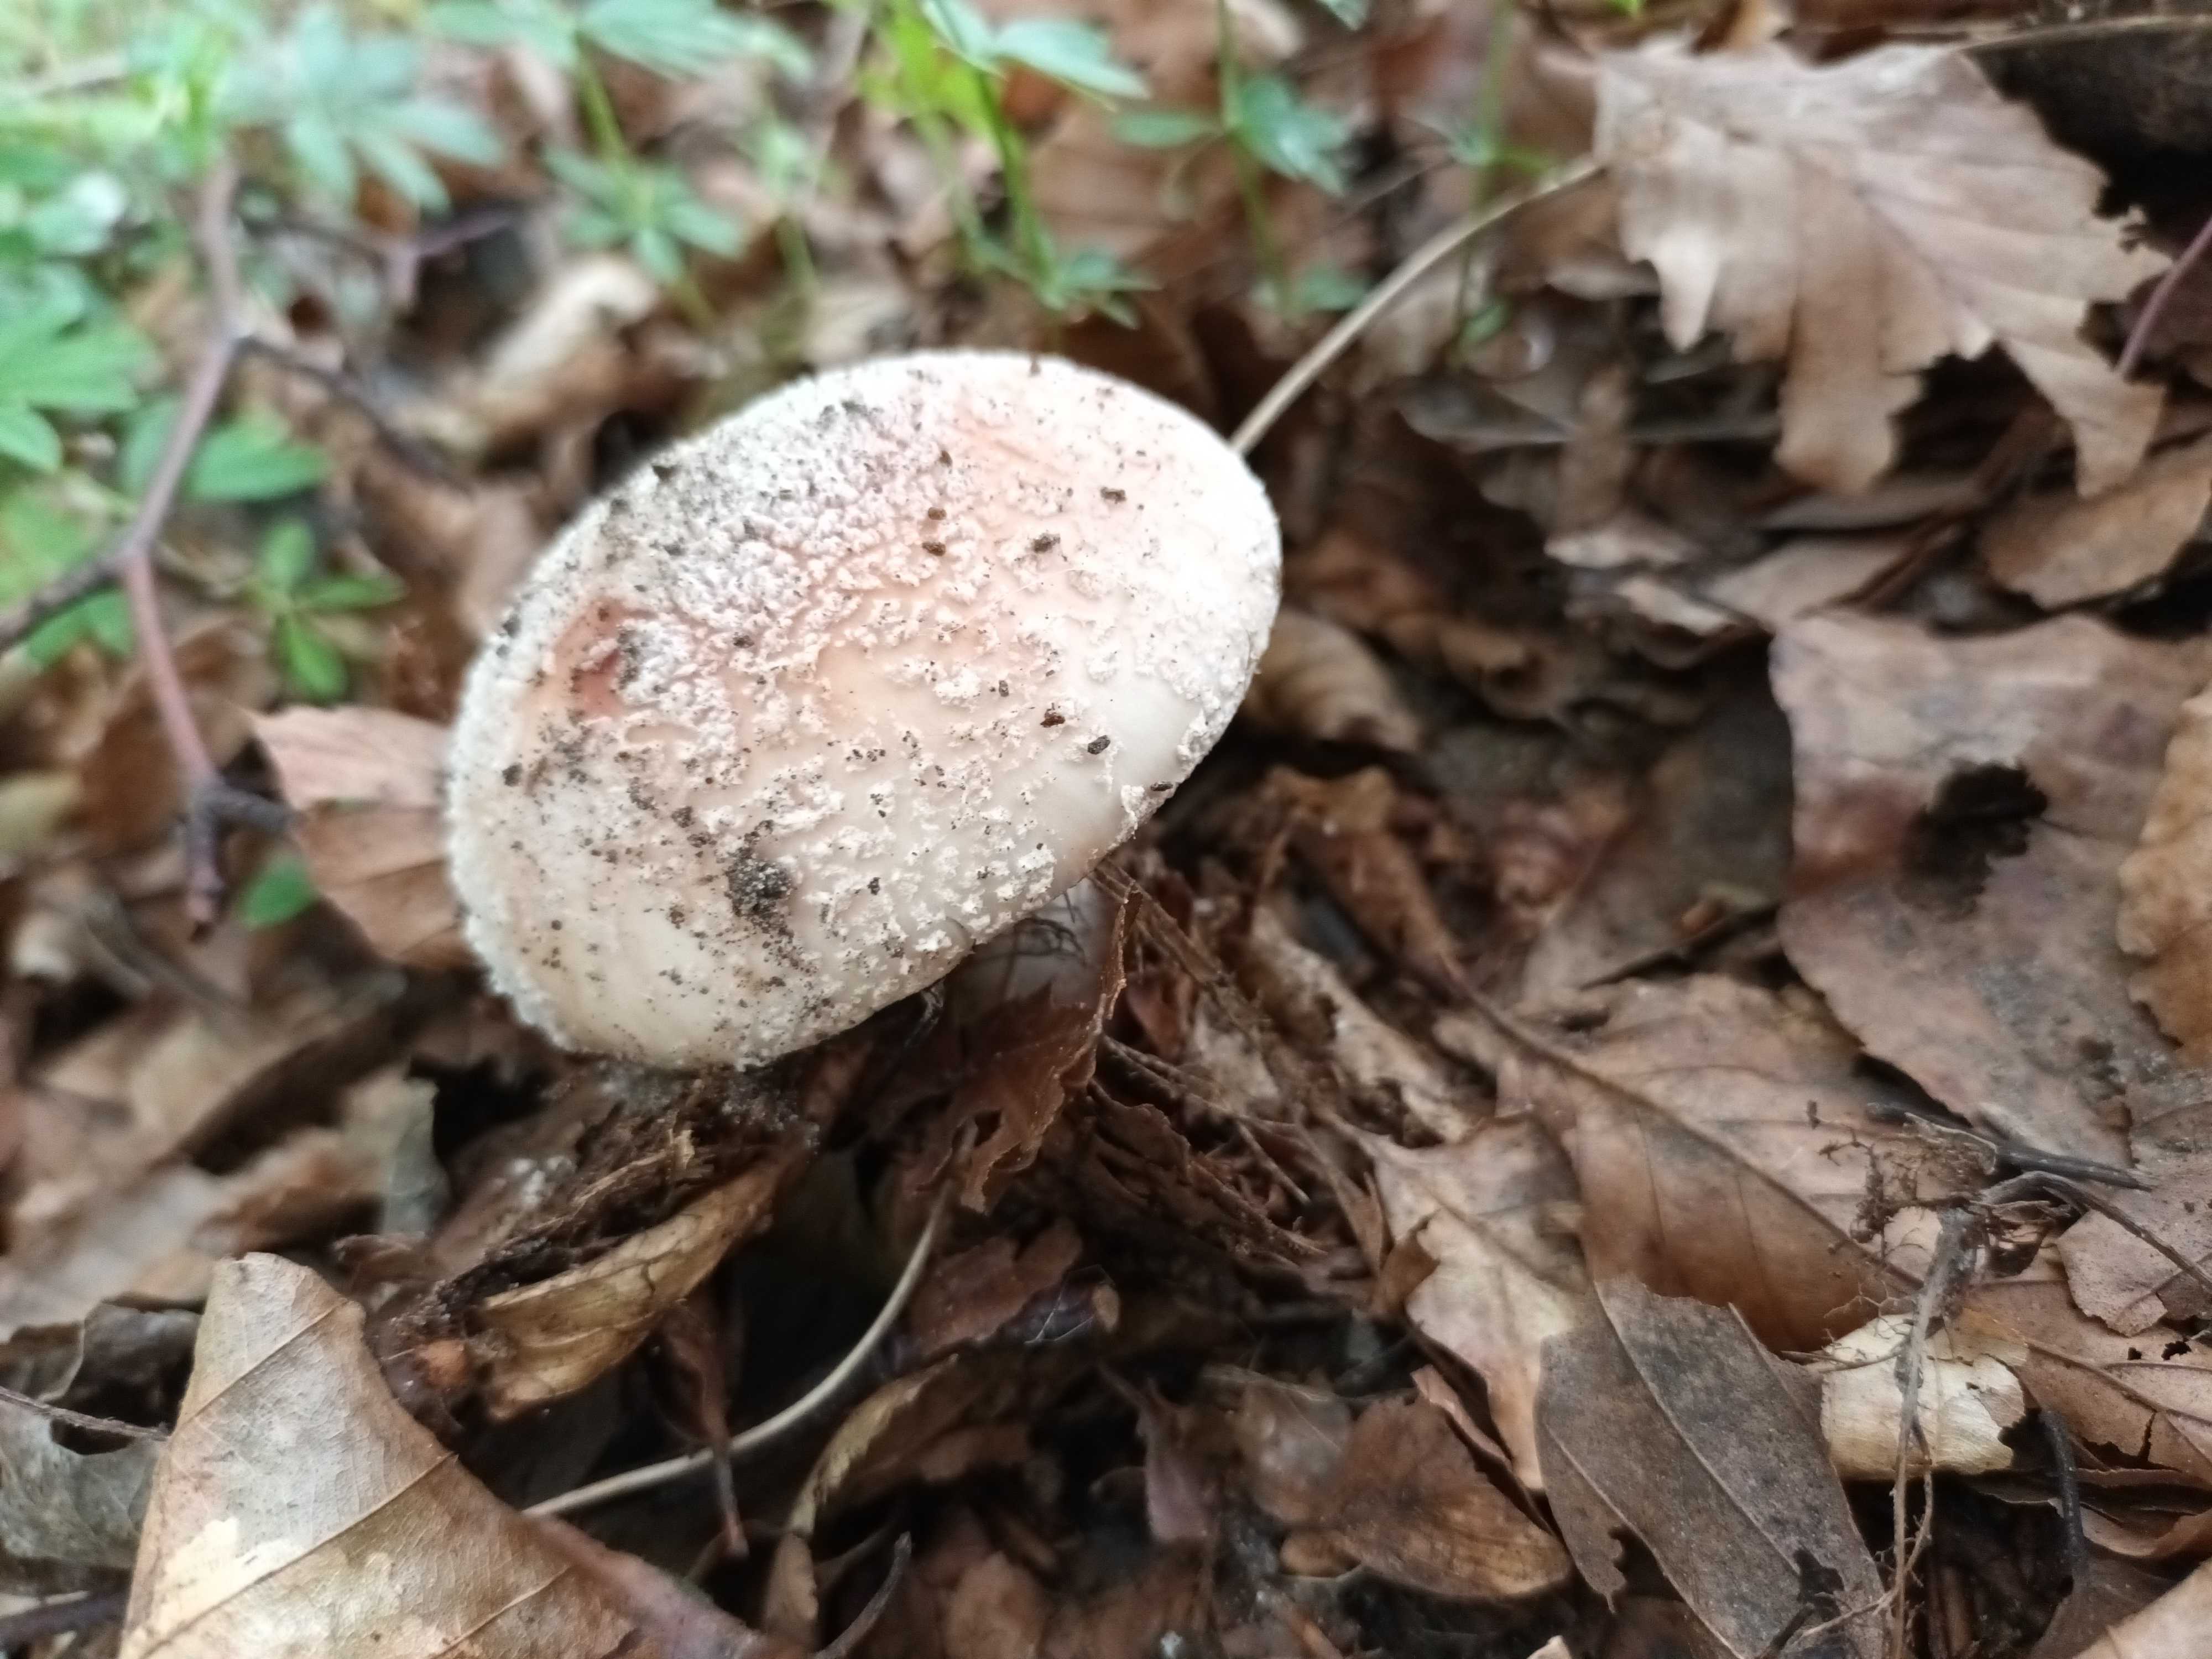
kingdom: Fungi
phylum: Basidiomycota
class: Agaricomycetes
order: Agaricales
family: Amanitaceae
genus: Amanita
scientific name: Amanita rubescens
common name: rødmende fluesvamp
